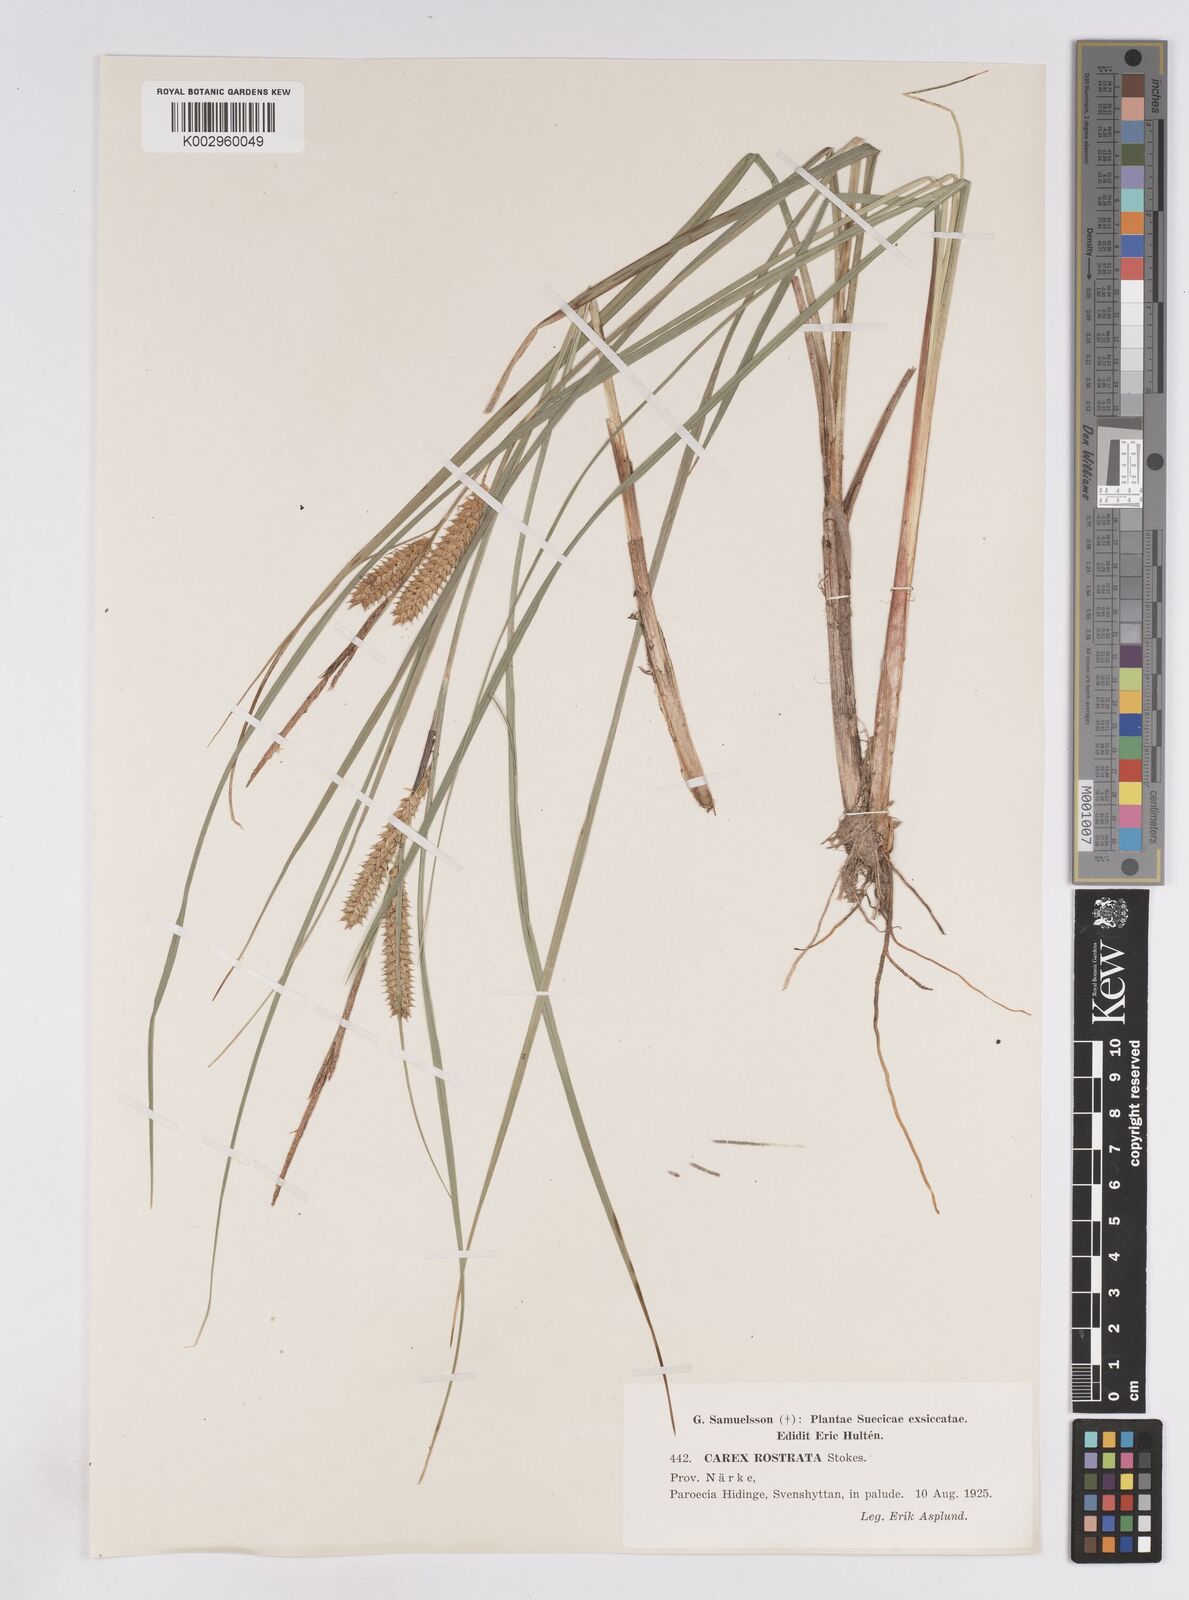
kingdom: Plantae
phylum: Tracheophyta
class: Liliopsida
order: Poales
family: Cyperaceae
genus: Carex
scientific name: Carex
